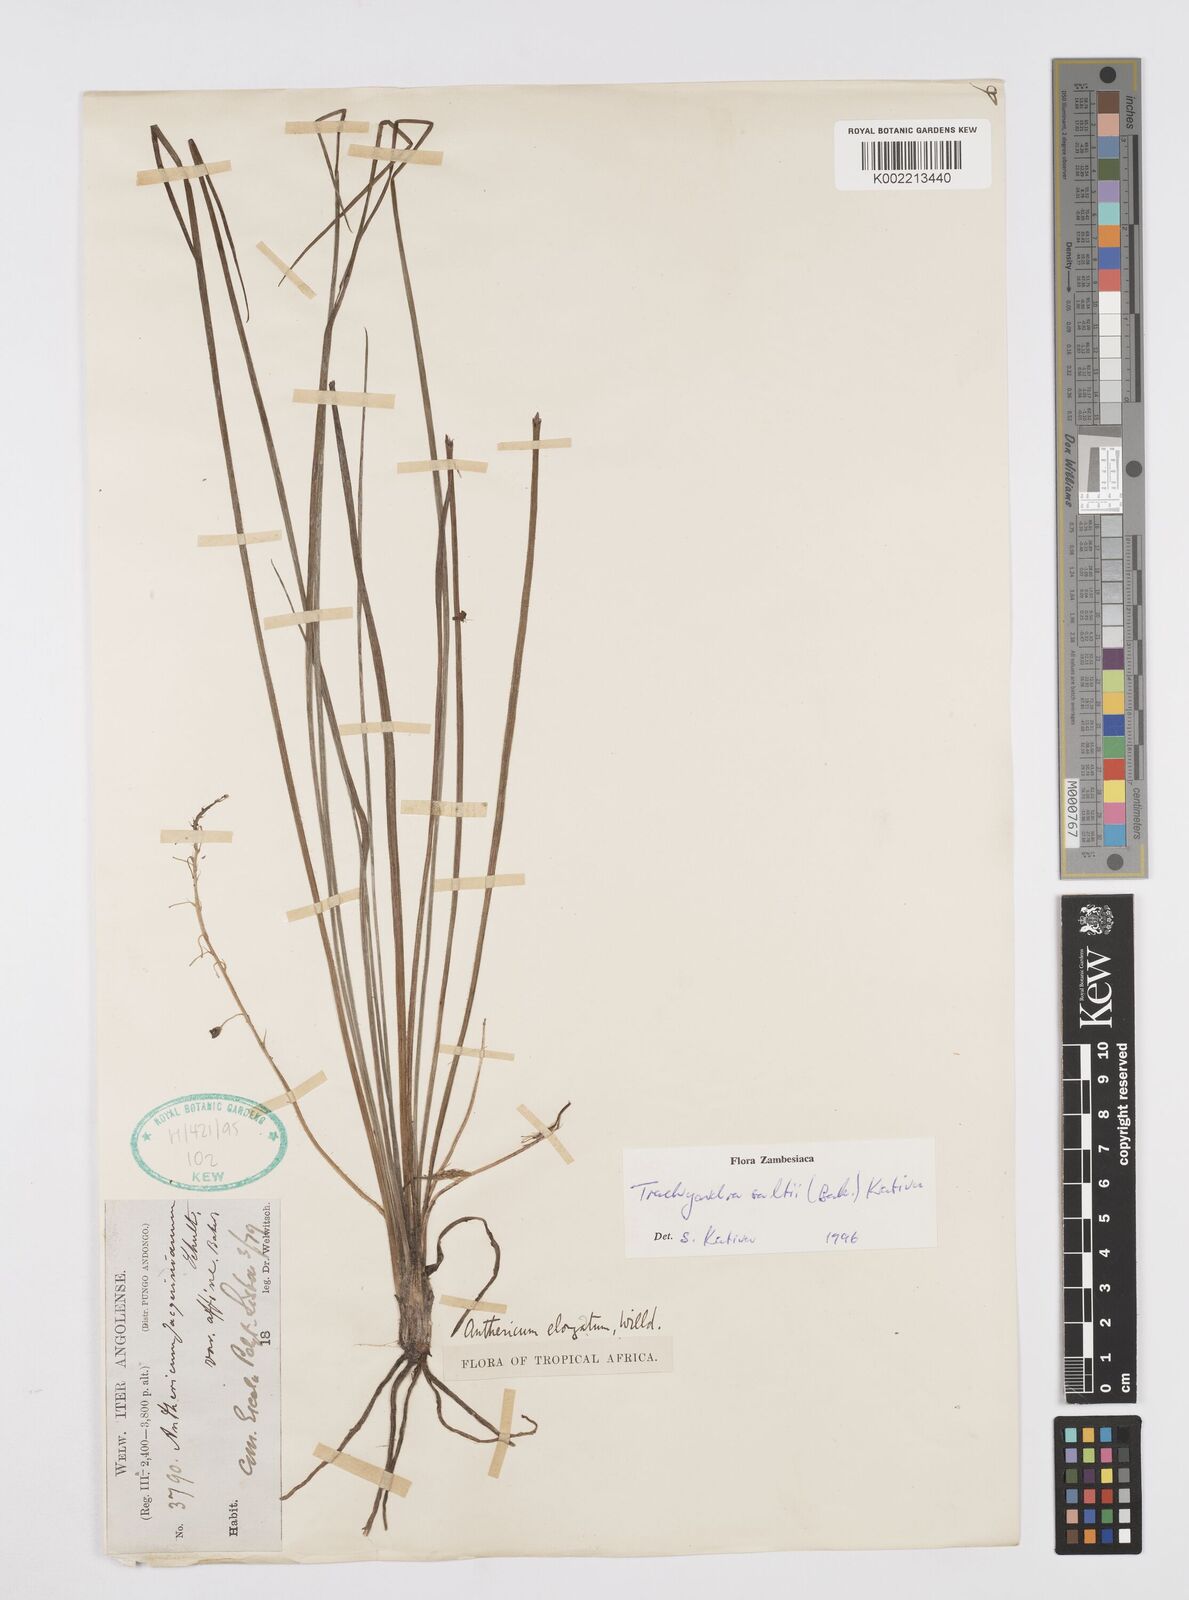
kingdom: Plantae
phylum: Tracheophyta
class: Liliopsida
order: Asparagales
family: Asphodelaceae
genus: Trachyandra
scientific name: Trachyandra saltii
